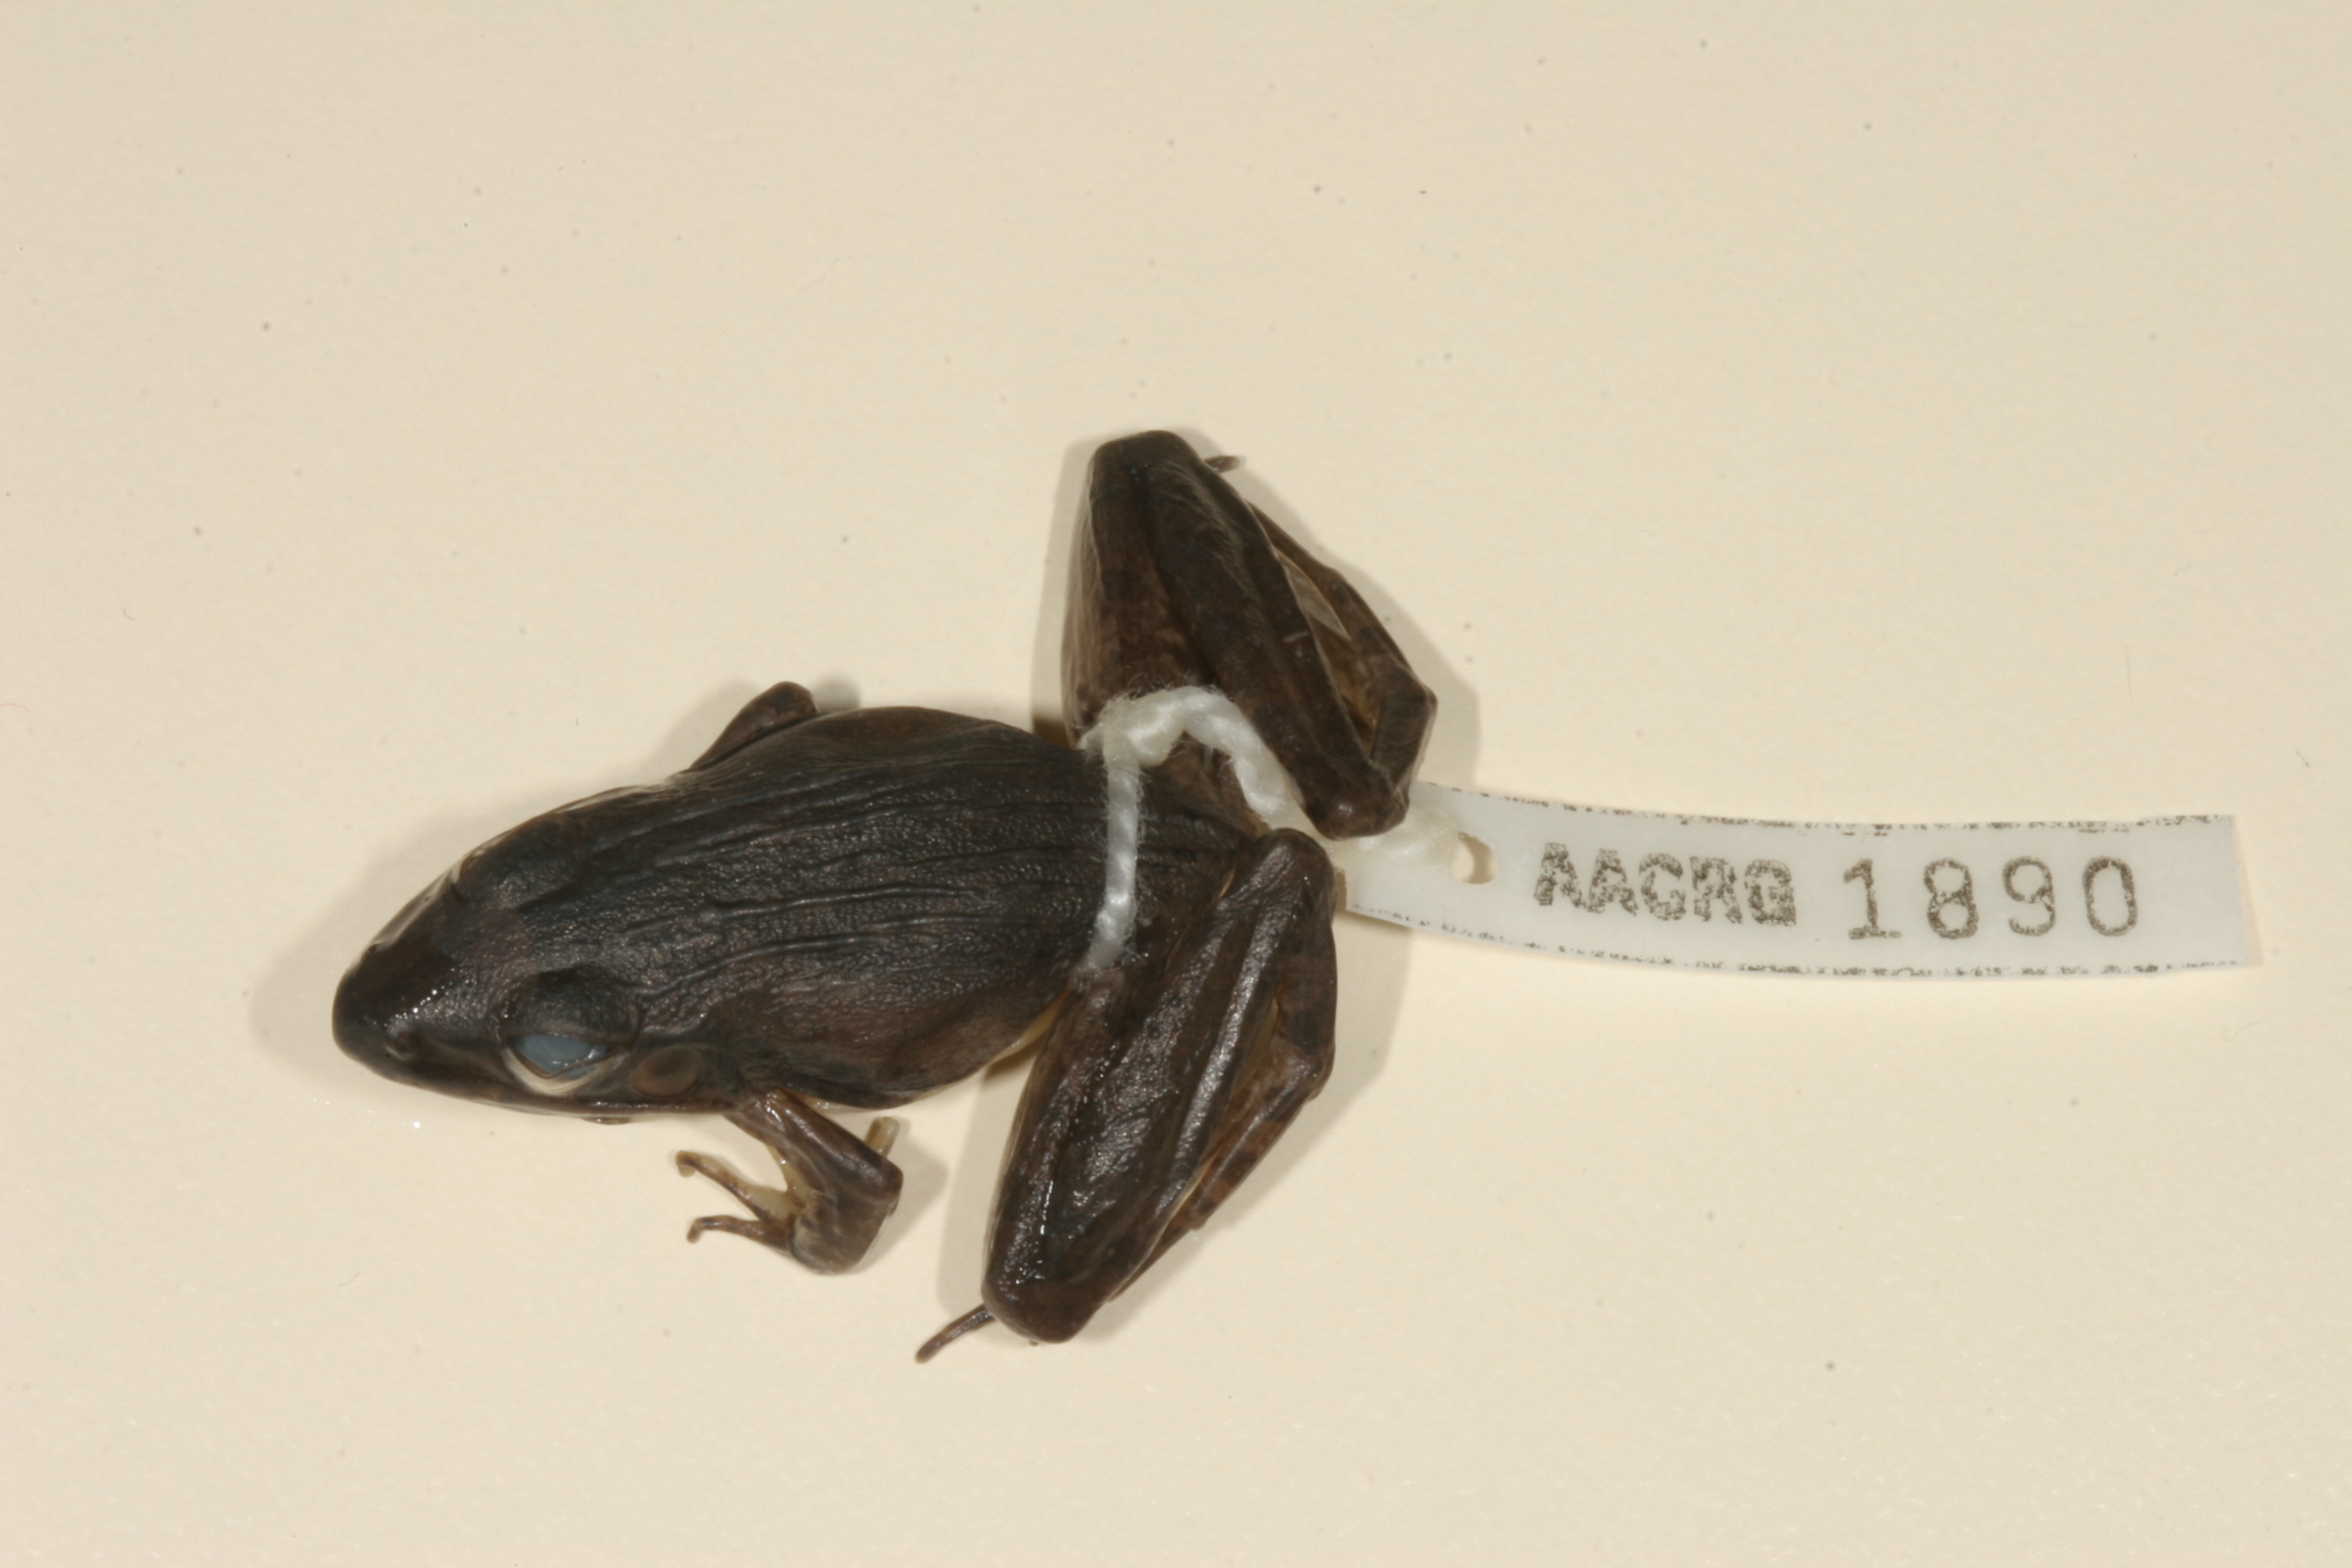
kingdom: Animalia
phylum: Chordata
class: Amphibia
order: Anura
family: Ptychadenidae
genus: Ptychadena
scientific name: Ptychadena anchietae
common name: Anchieta's ridged frog
